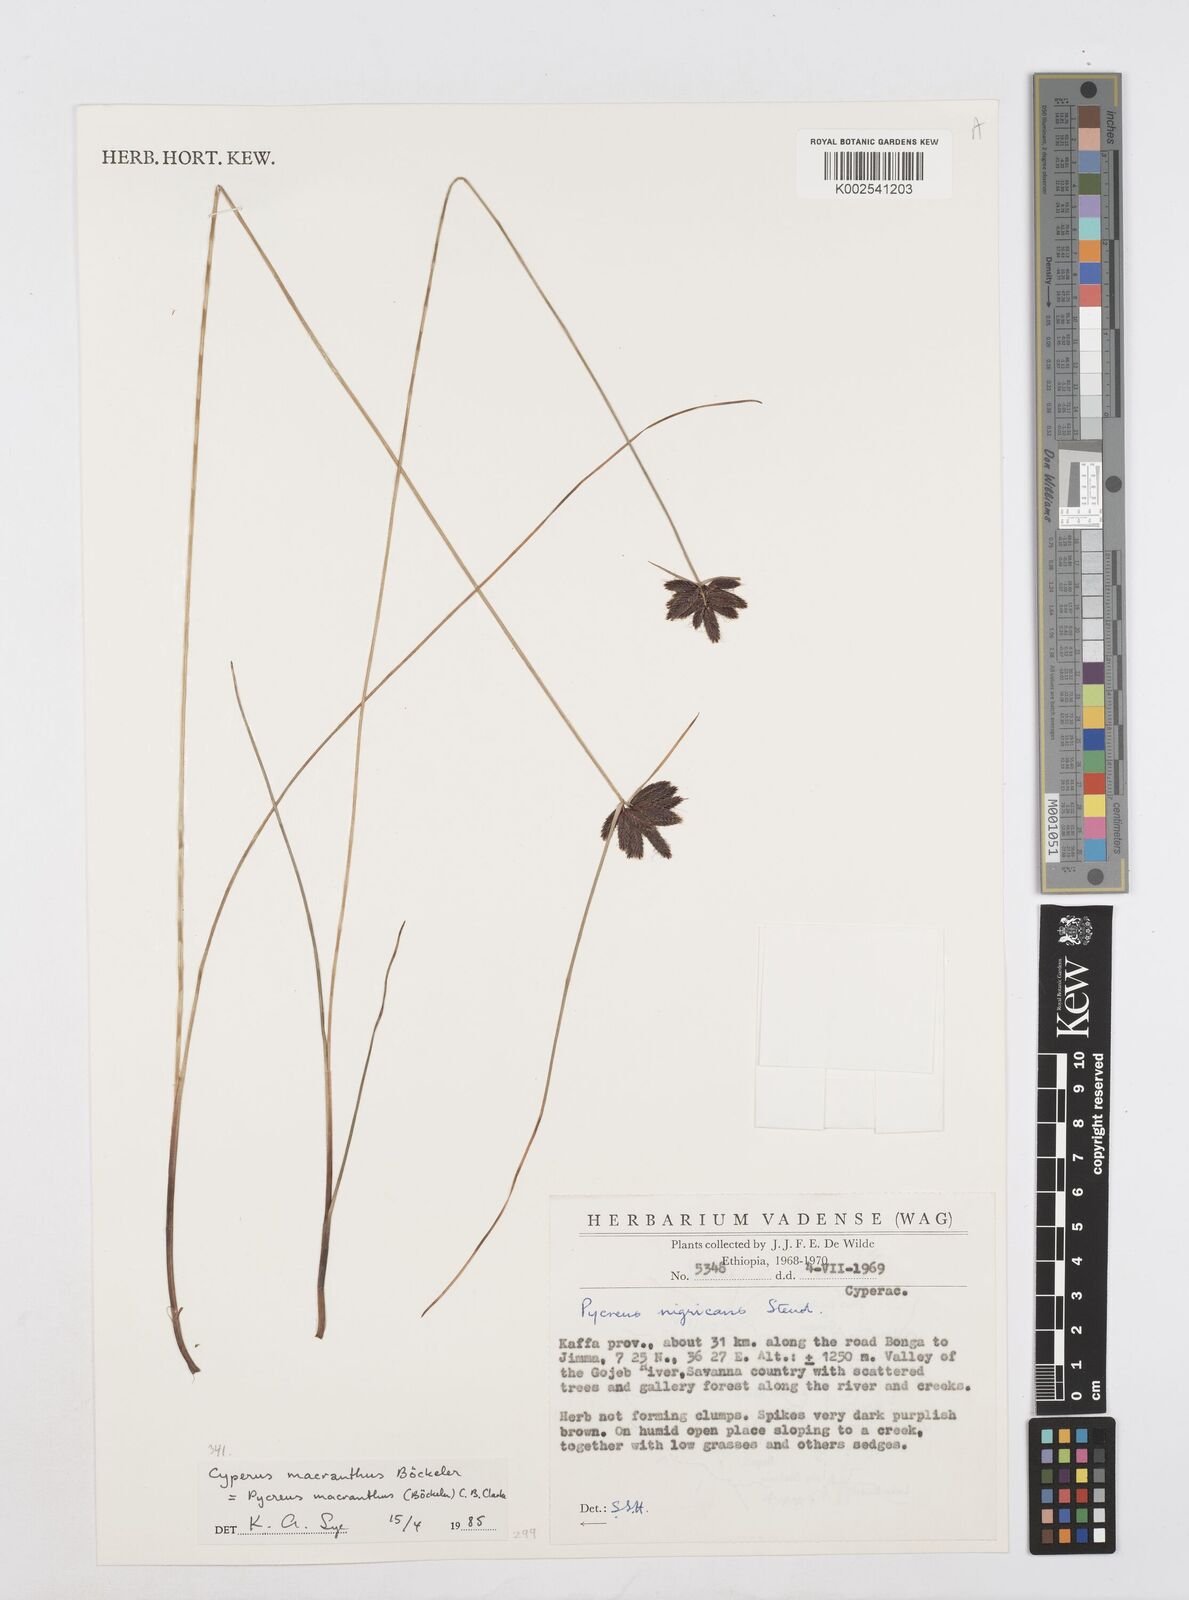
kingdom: Plantae
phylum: Tracheophyta
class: Liliopsida
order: Poales
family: Cyperaceae
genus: Cyperus
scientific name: Cyperus nigricans
